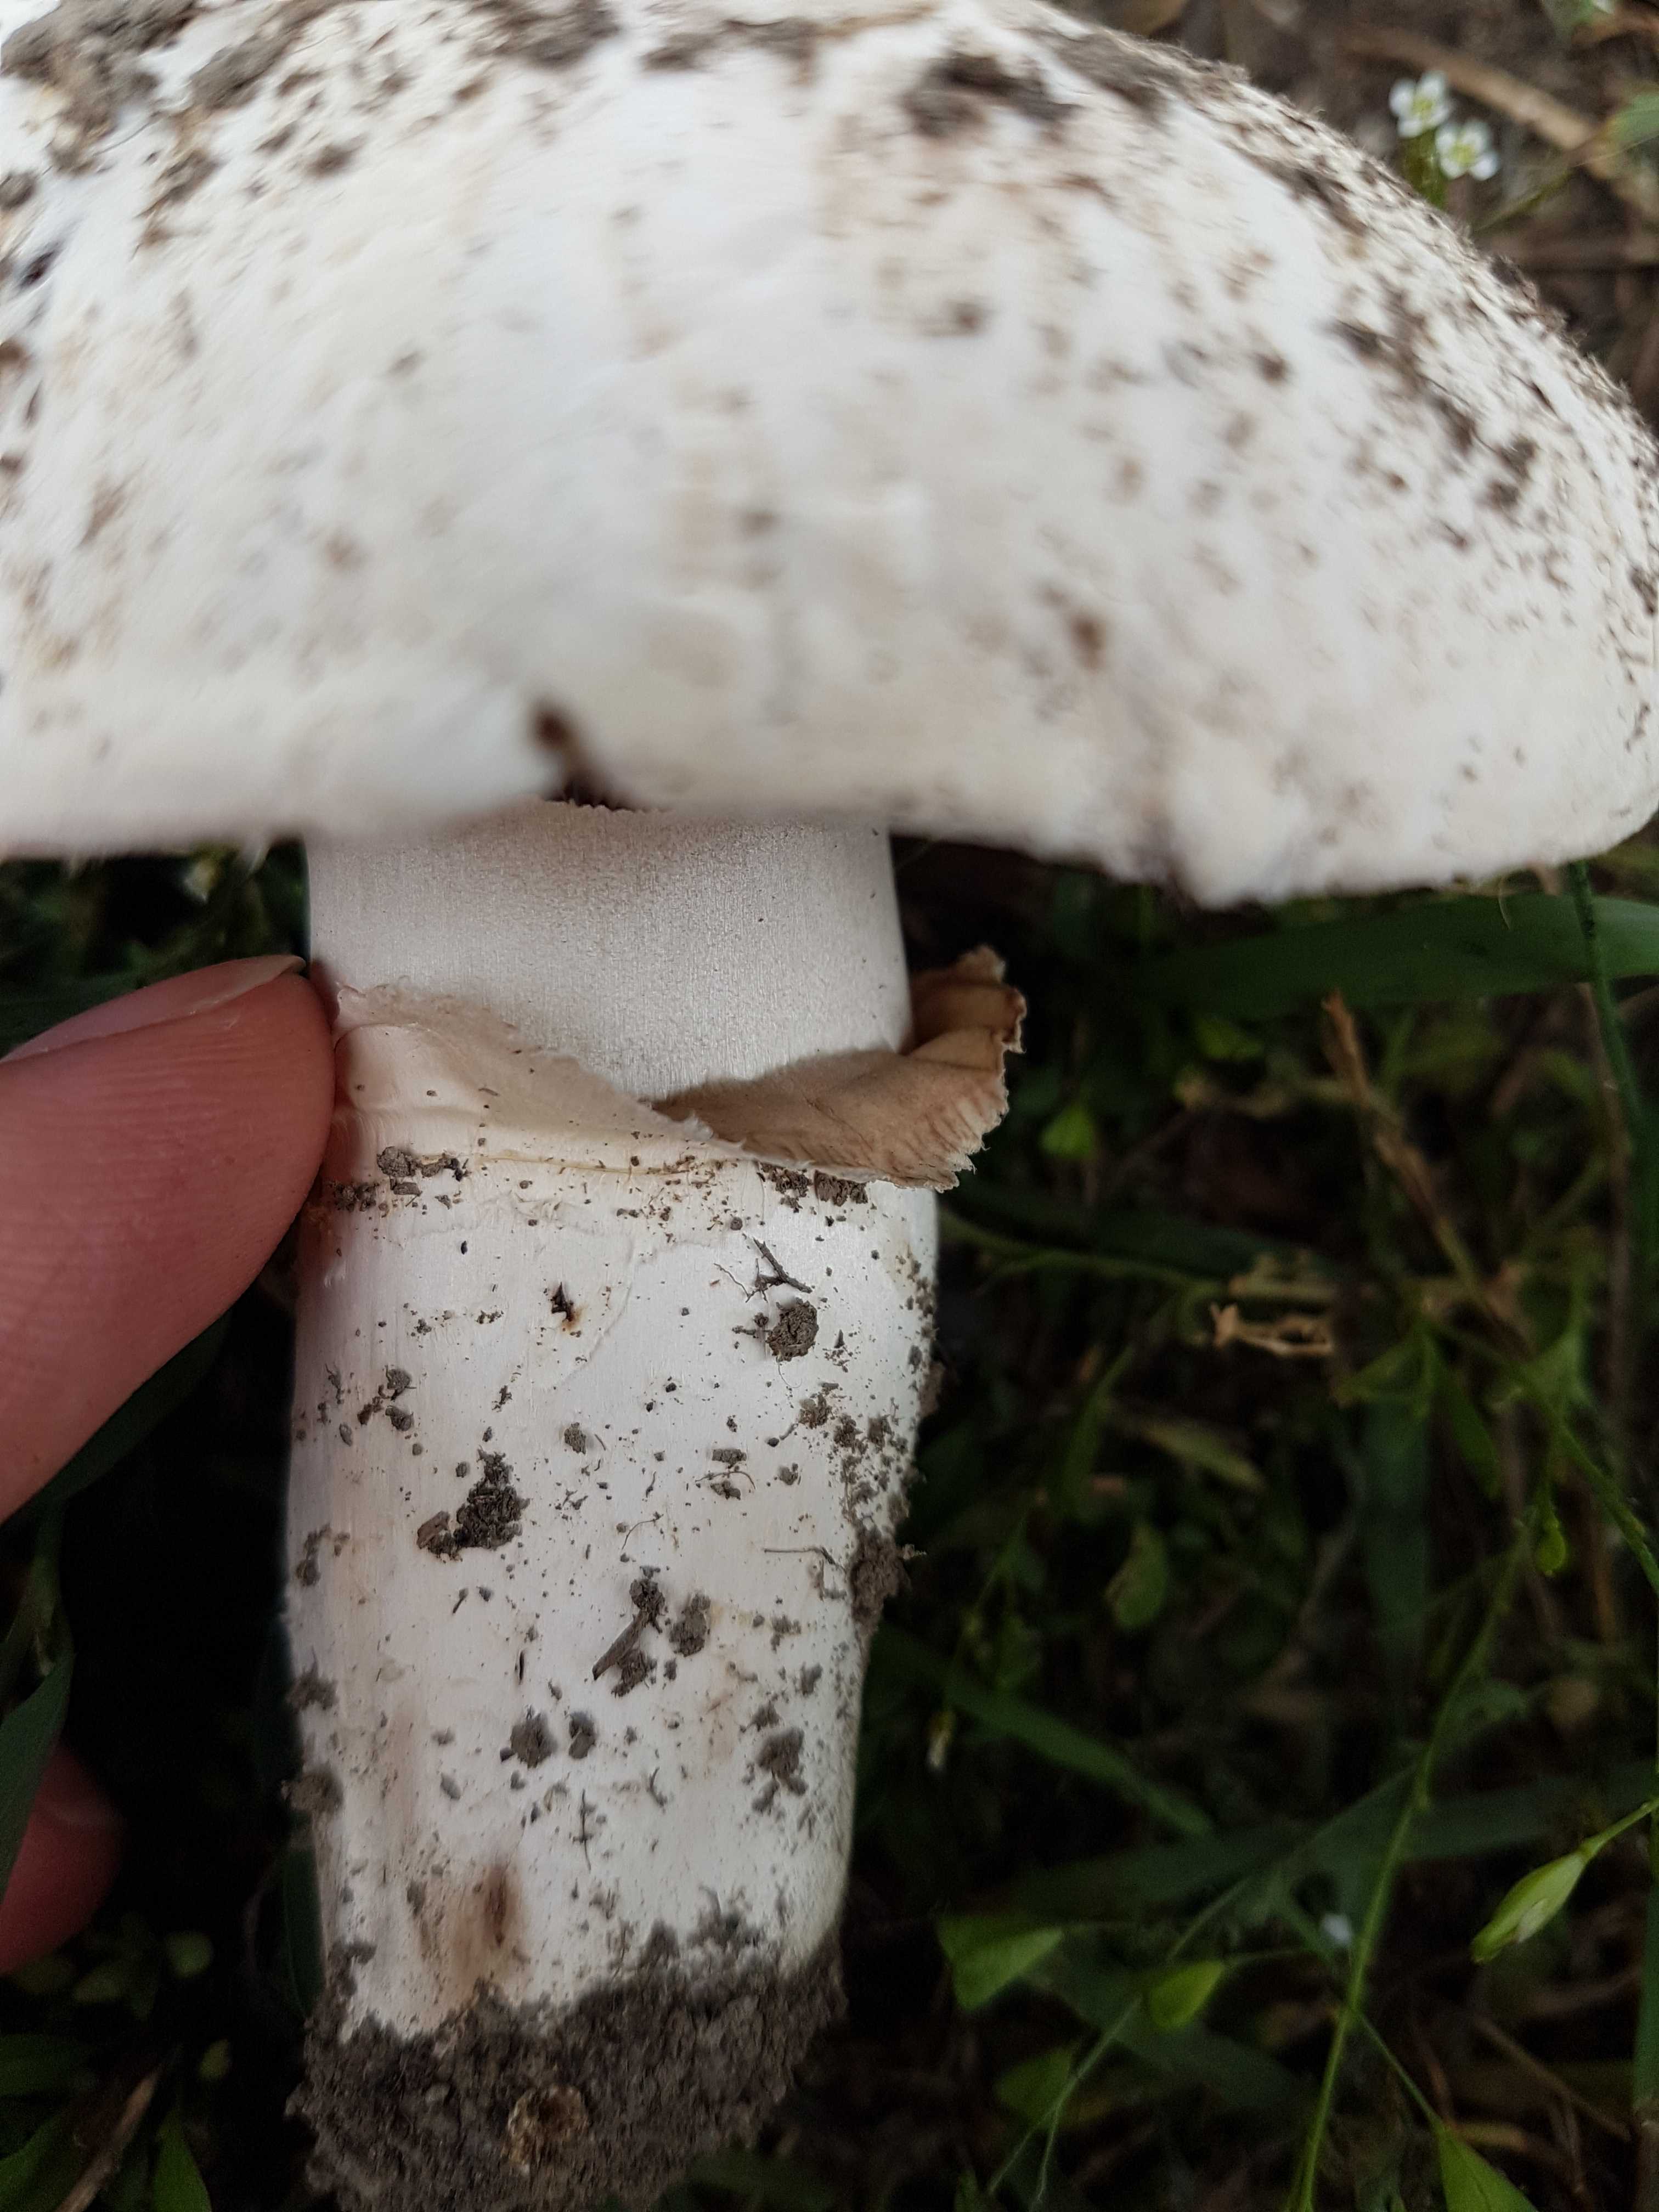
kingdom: Fungi
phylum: Basidiomycota
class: Agaricomycetes
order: Agaricales
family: Agaricaceae
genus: Agaricus
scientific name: Agaricus bitorquis
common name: vej-champignon
